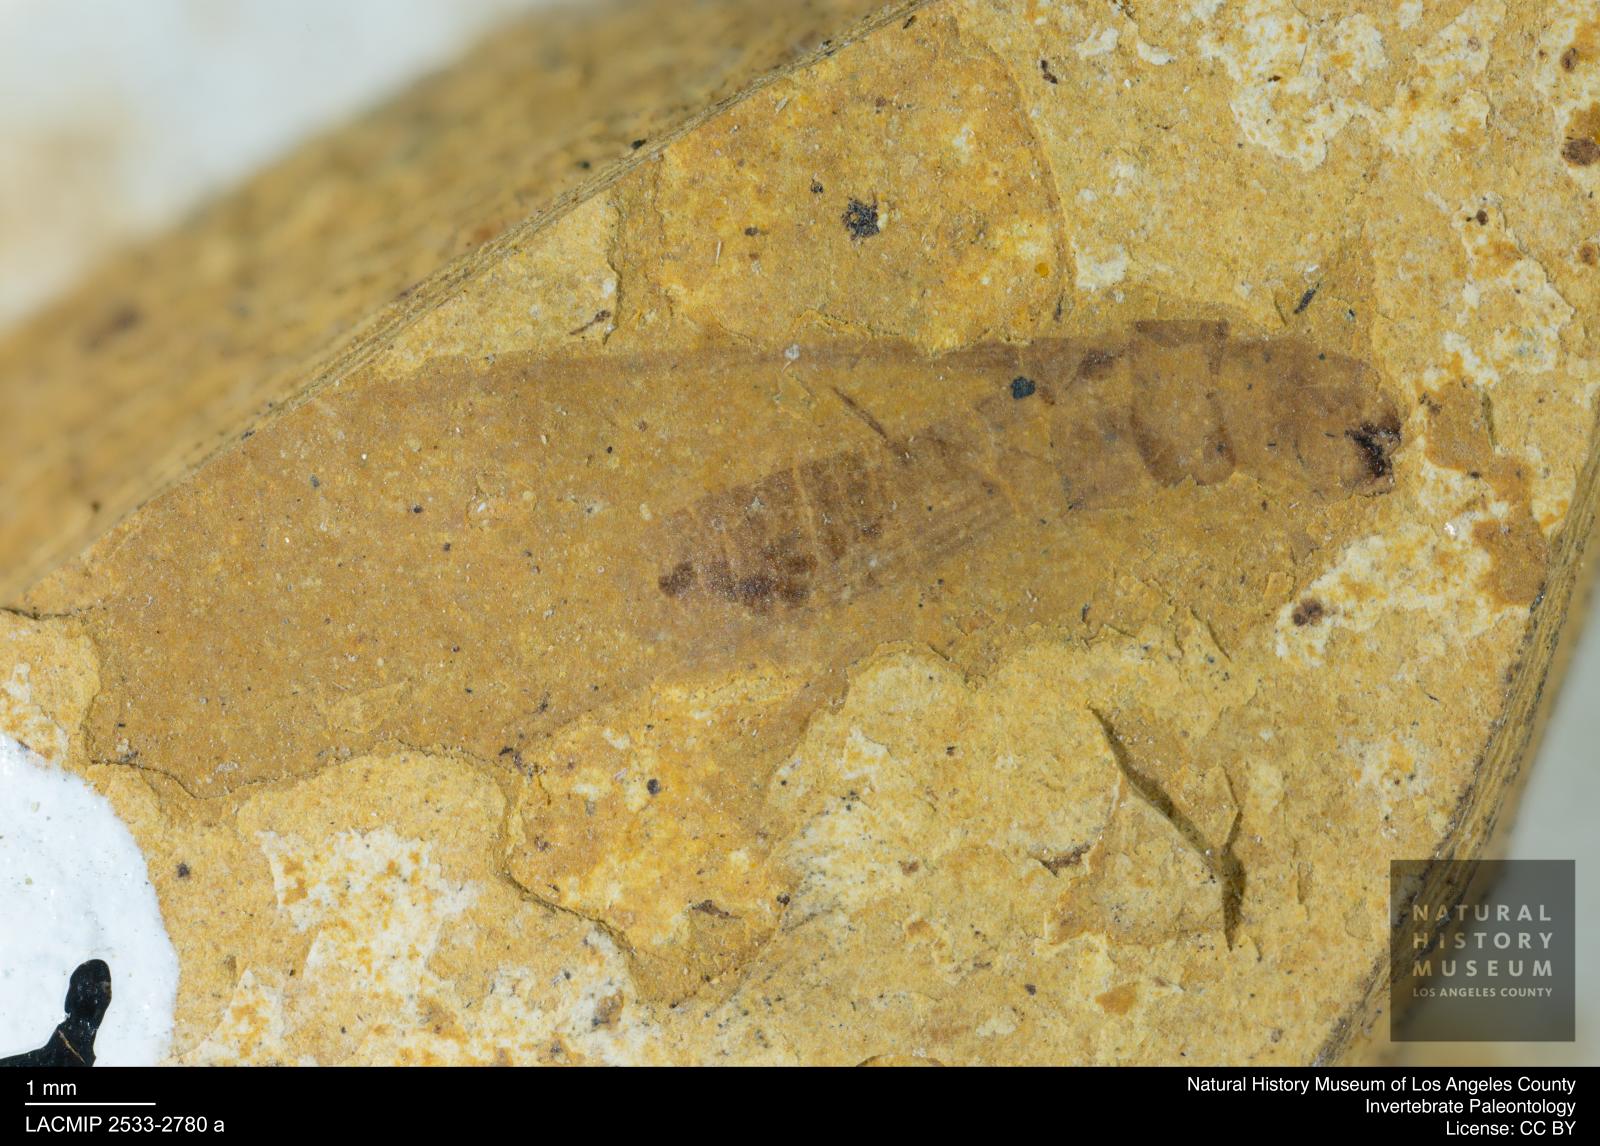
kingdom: Animalia
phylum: Arthropoda
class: Insecta
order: Blattodea
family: Kalotermitidae
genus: Kalotermes
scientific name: Kalotermes rhenanus
